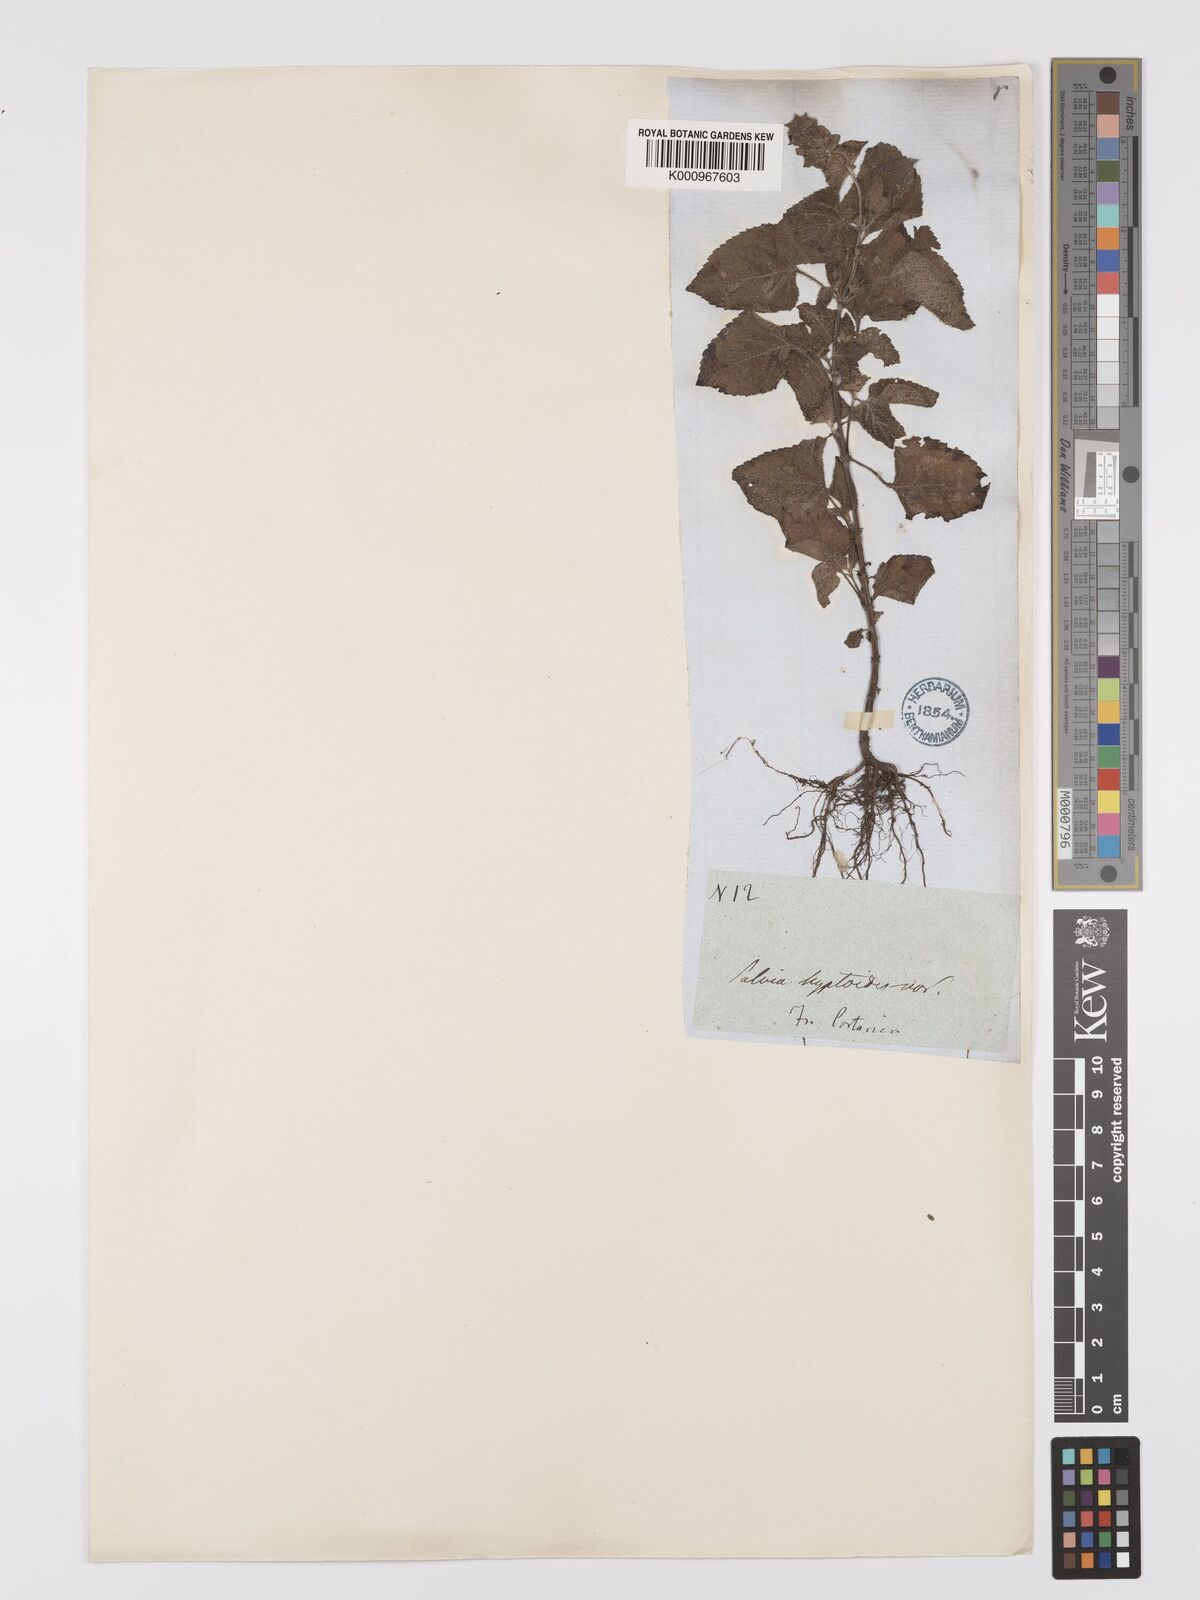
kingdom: Plantae
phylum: Tracheophyta
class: Magnoliopsida
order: Lamiales
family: Lamiaceae
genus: Salvia
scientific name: Salvia lasiocephala
